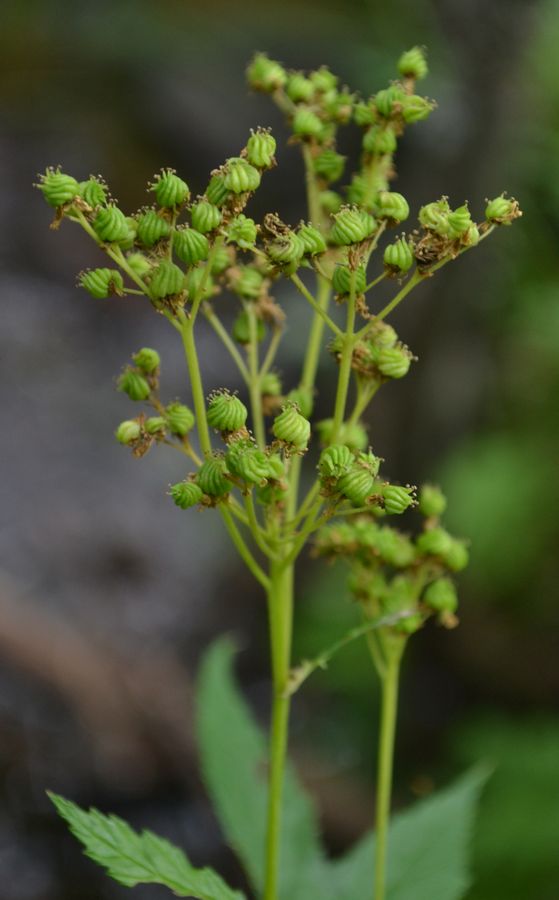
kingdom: Plantae
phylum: Tracheophyta
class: Magnoliopsida
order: Rosales
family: Rosaceae
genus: Filipendula
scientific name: Filipendula ulmaria
